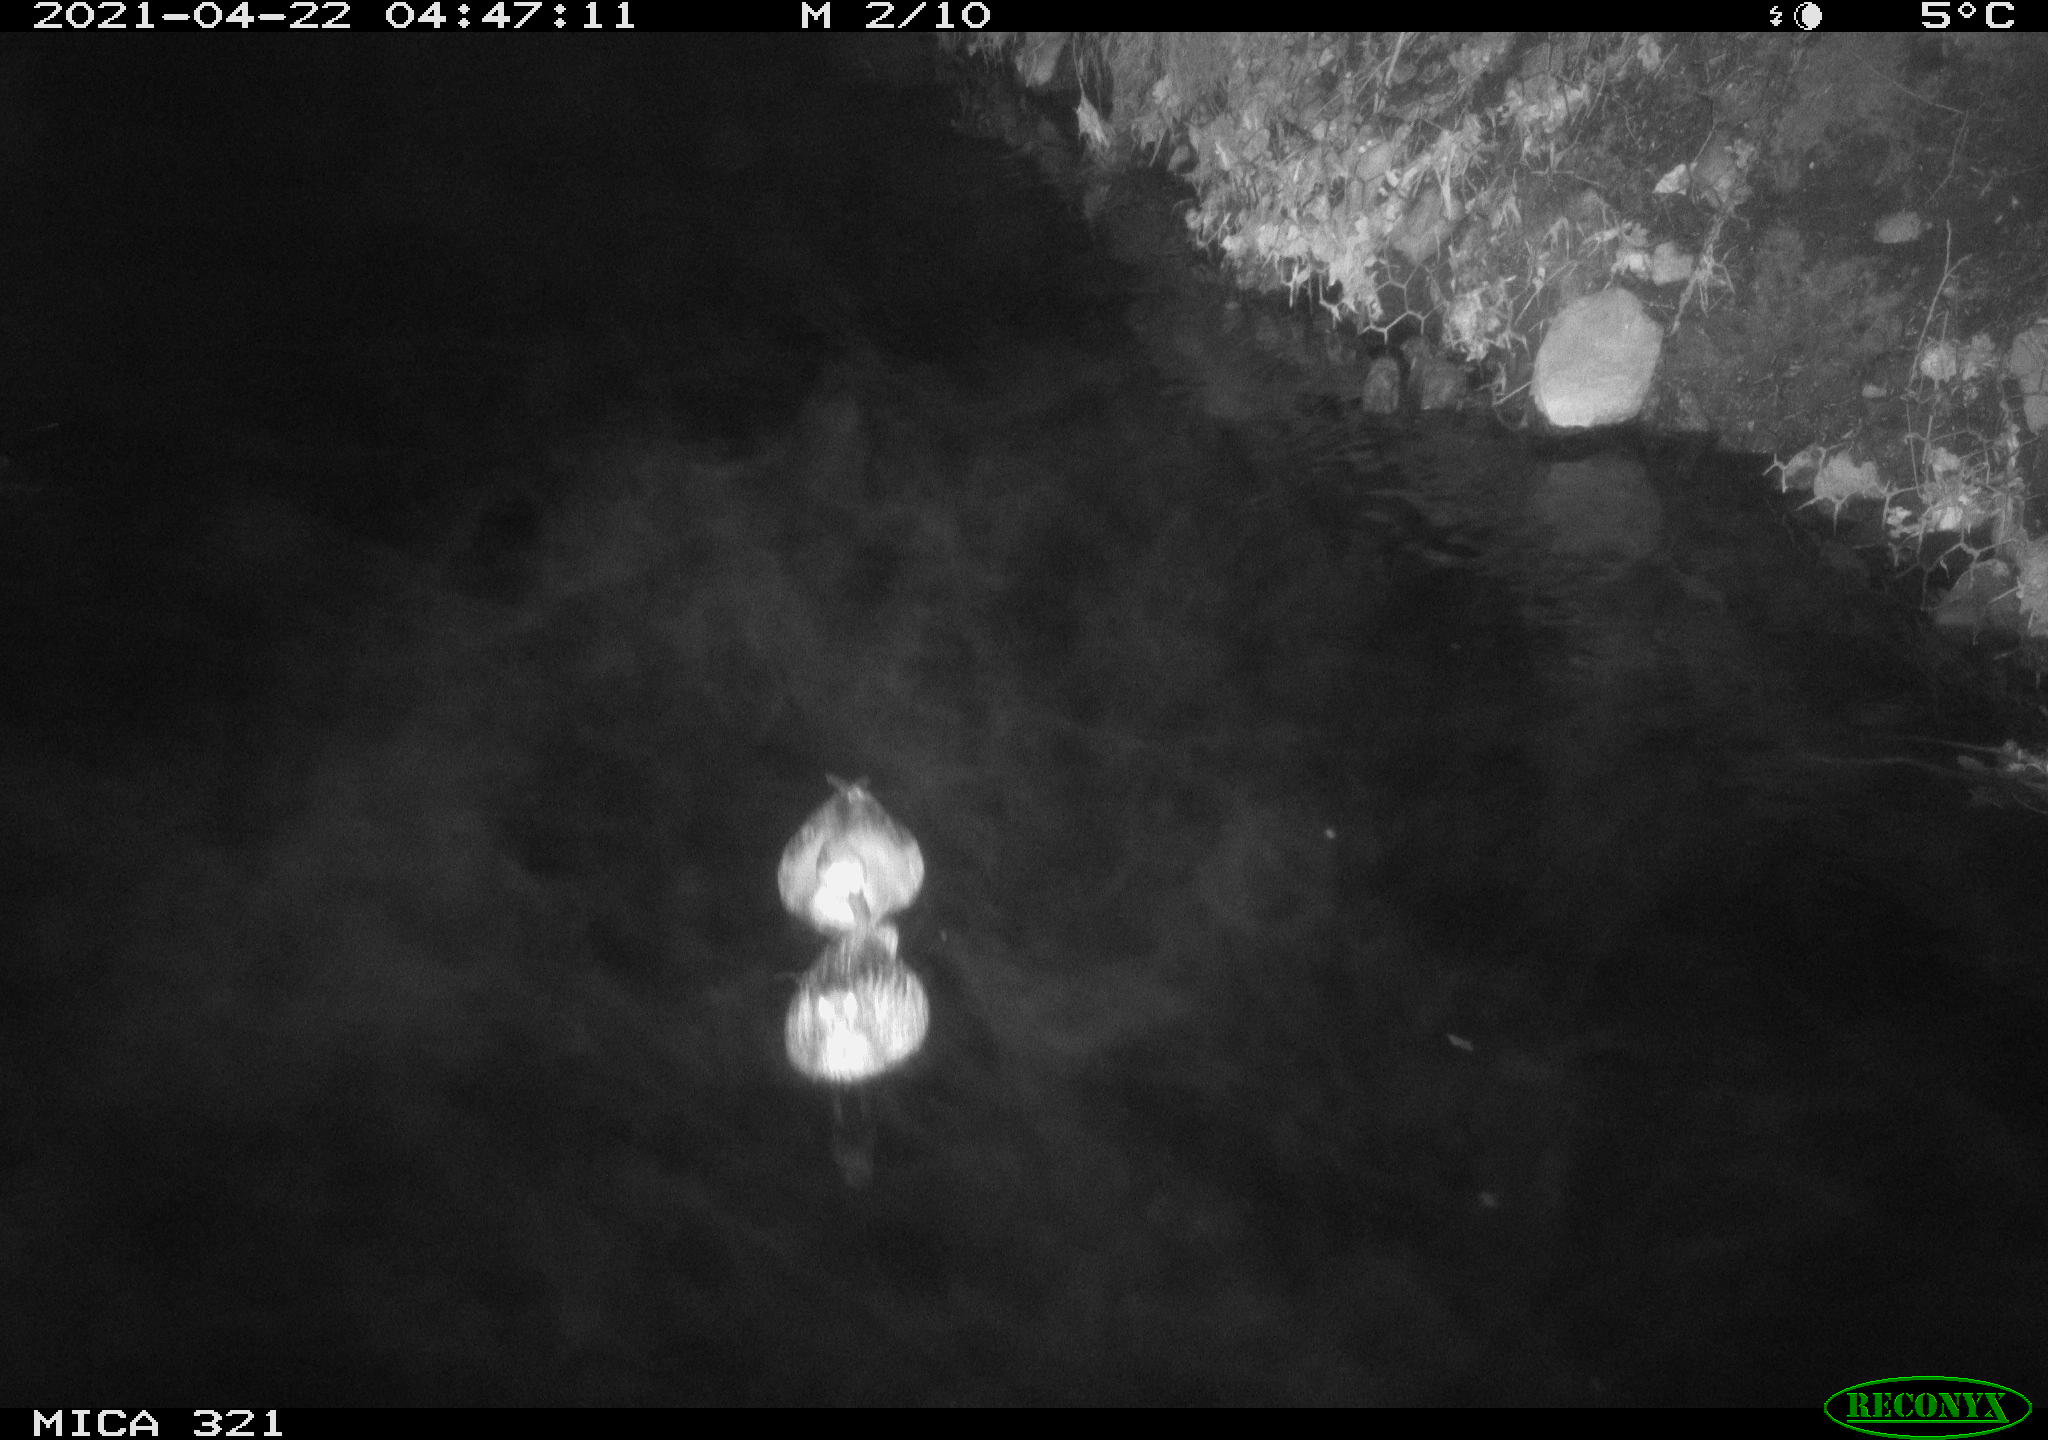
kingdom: Animalia
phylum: Chordata
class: Aves
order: Anseriformes
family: Anatidae
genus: Anas
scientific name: Anas
